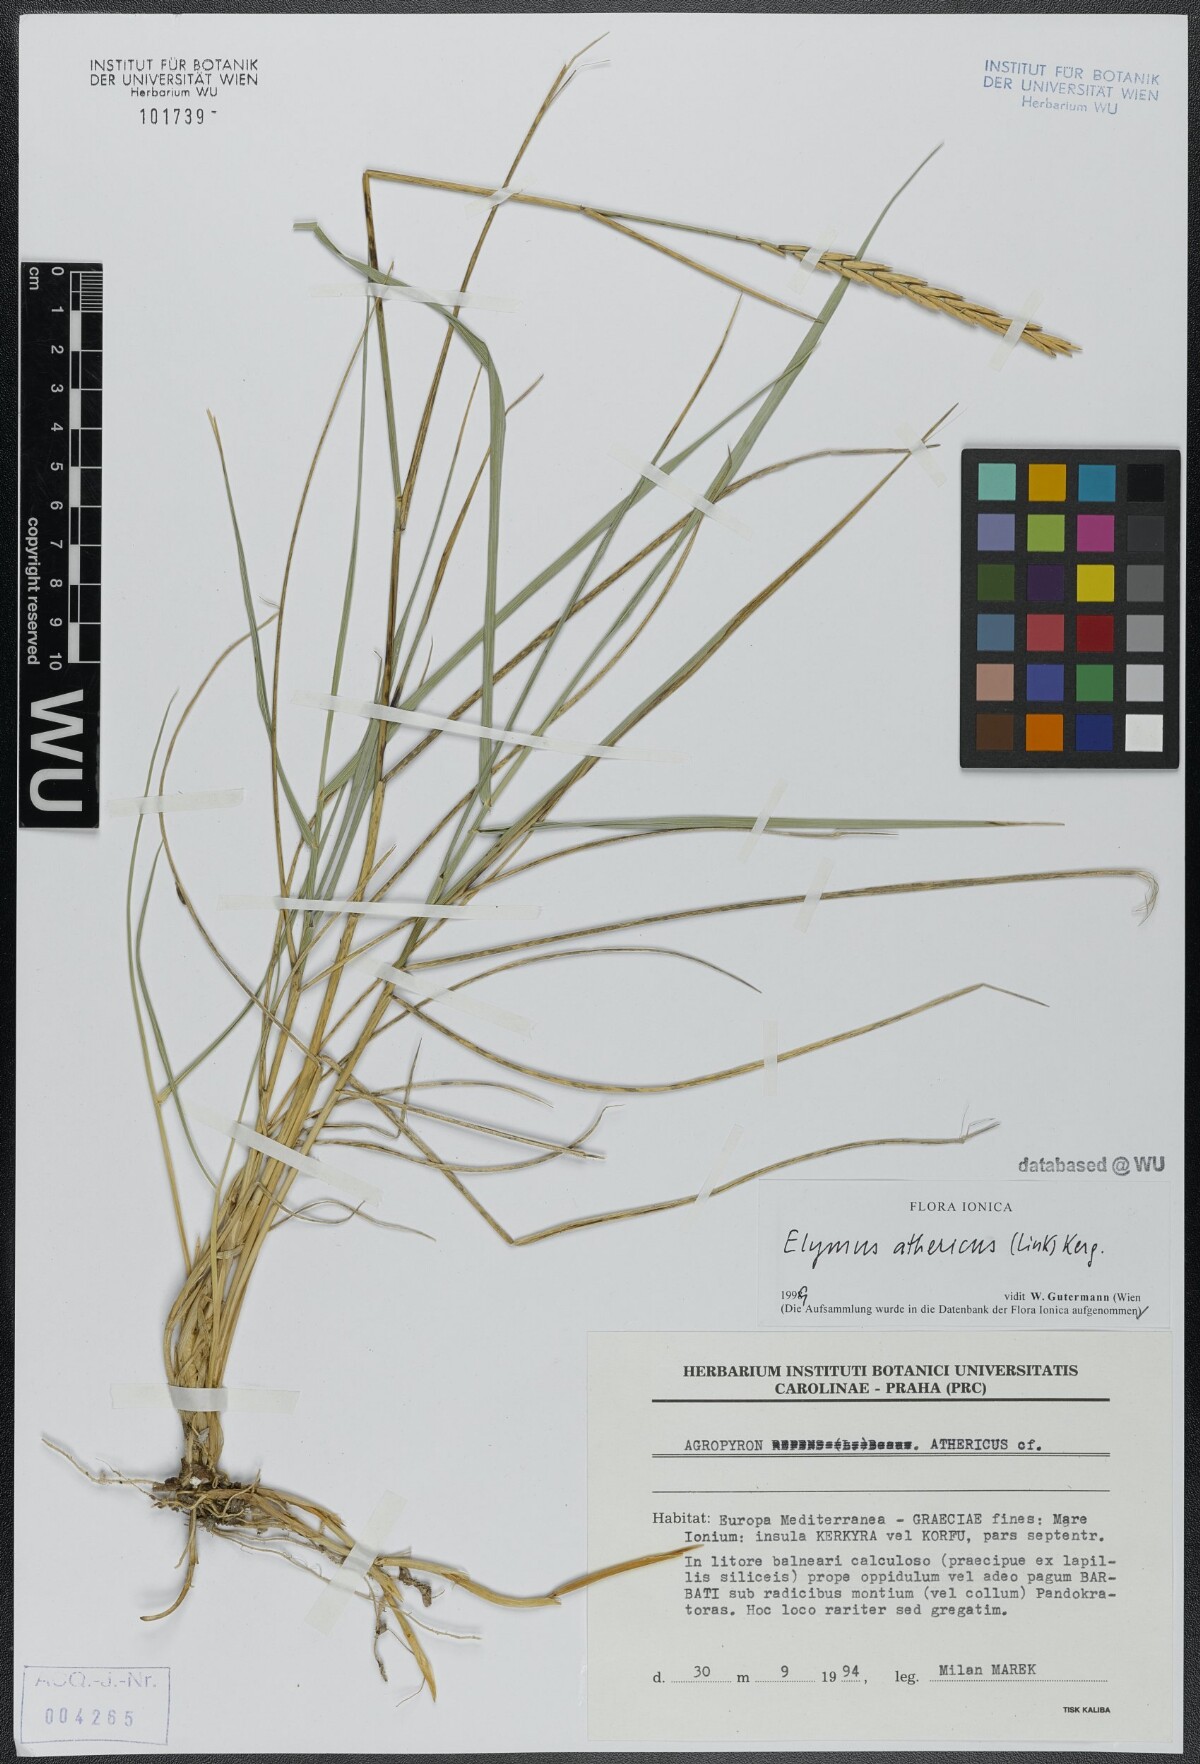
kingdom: Plantae
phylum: Tracheophyta
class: Liliopsida
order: Poales
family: Poaceae
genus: Elymus
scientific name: Elymus athericus
